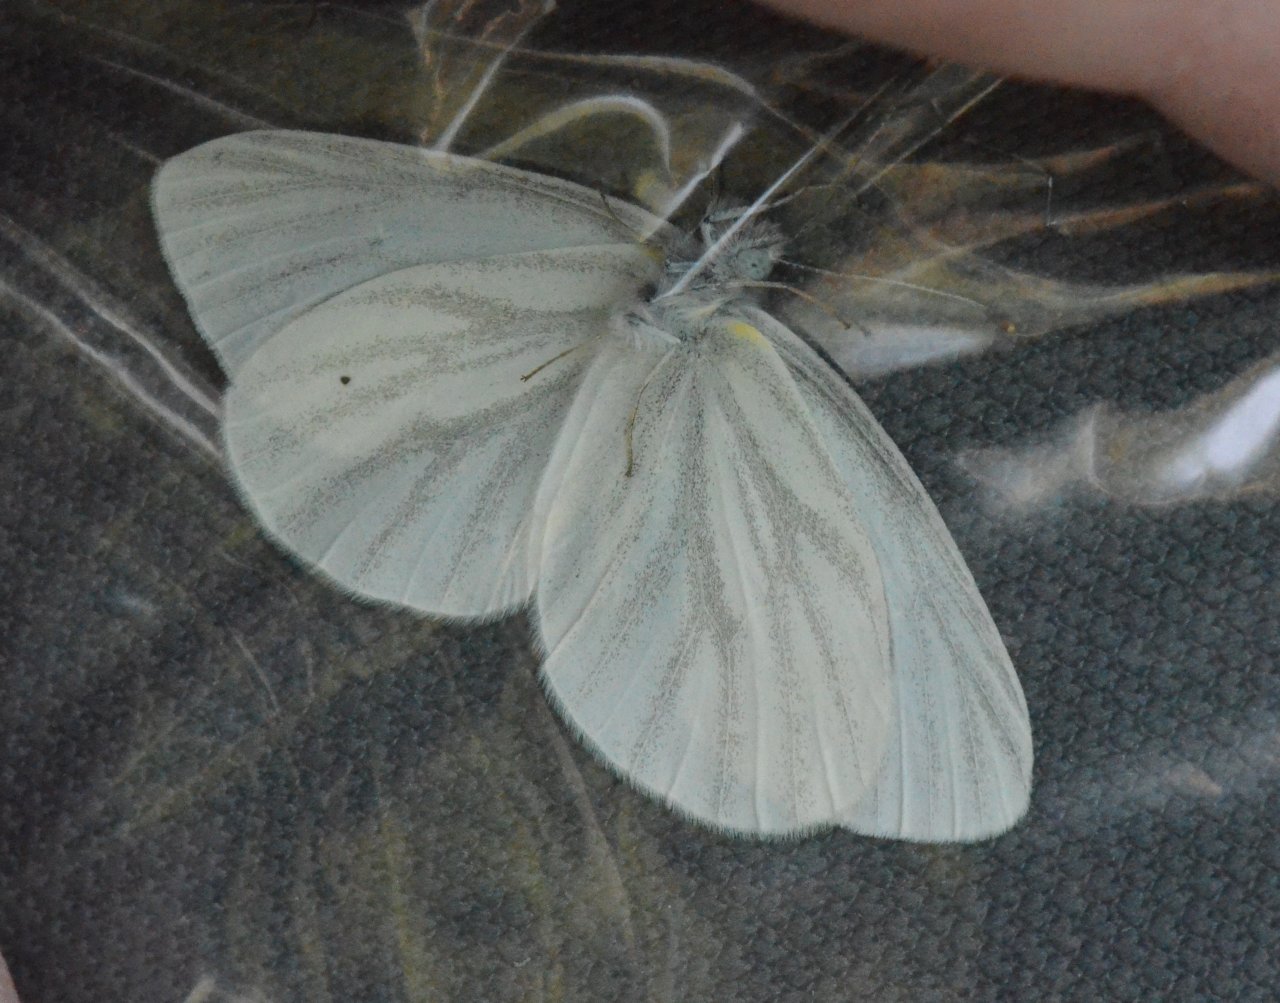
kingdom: Animalia
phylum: Arthropoda
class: Insecta
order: Lepidoptera
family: Pieridae
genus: Pieris
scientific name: Pieris virginiensis
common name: West Virginia White
